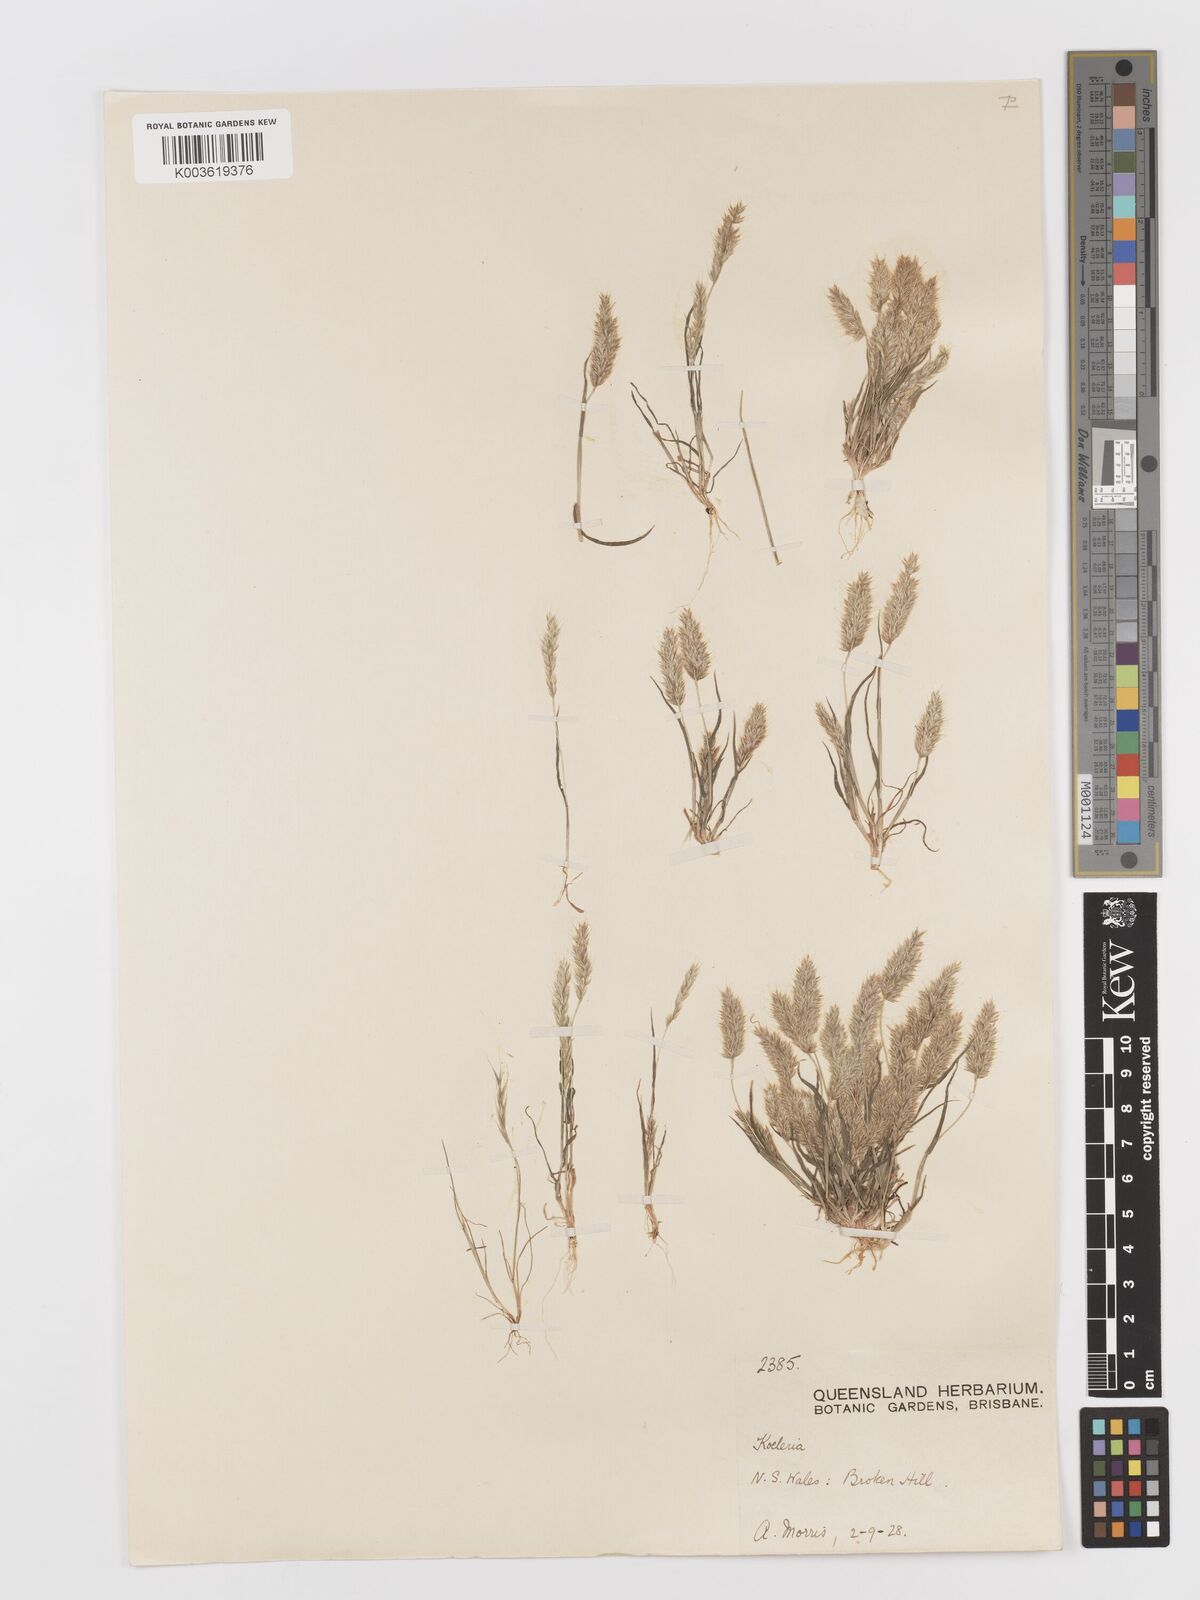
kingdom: Plantae
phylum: Tracheophyta
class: Liliopsida
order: Poales
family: Poaceae
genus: Rostraria
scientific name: Rostraria pumila
